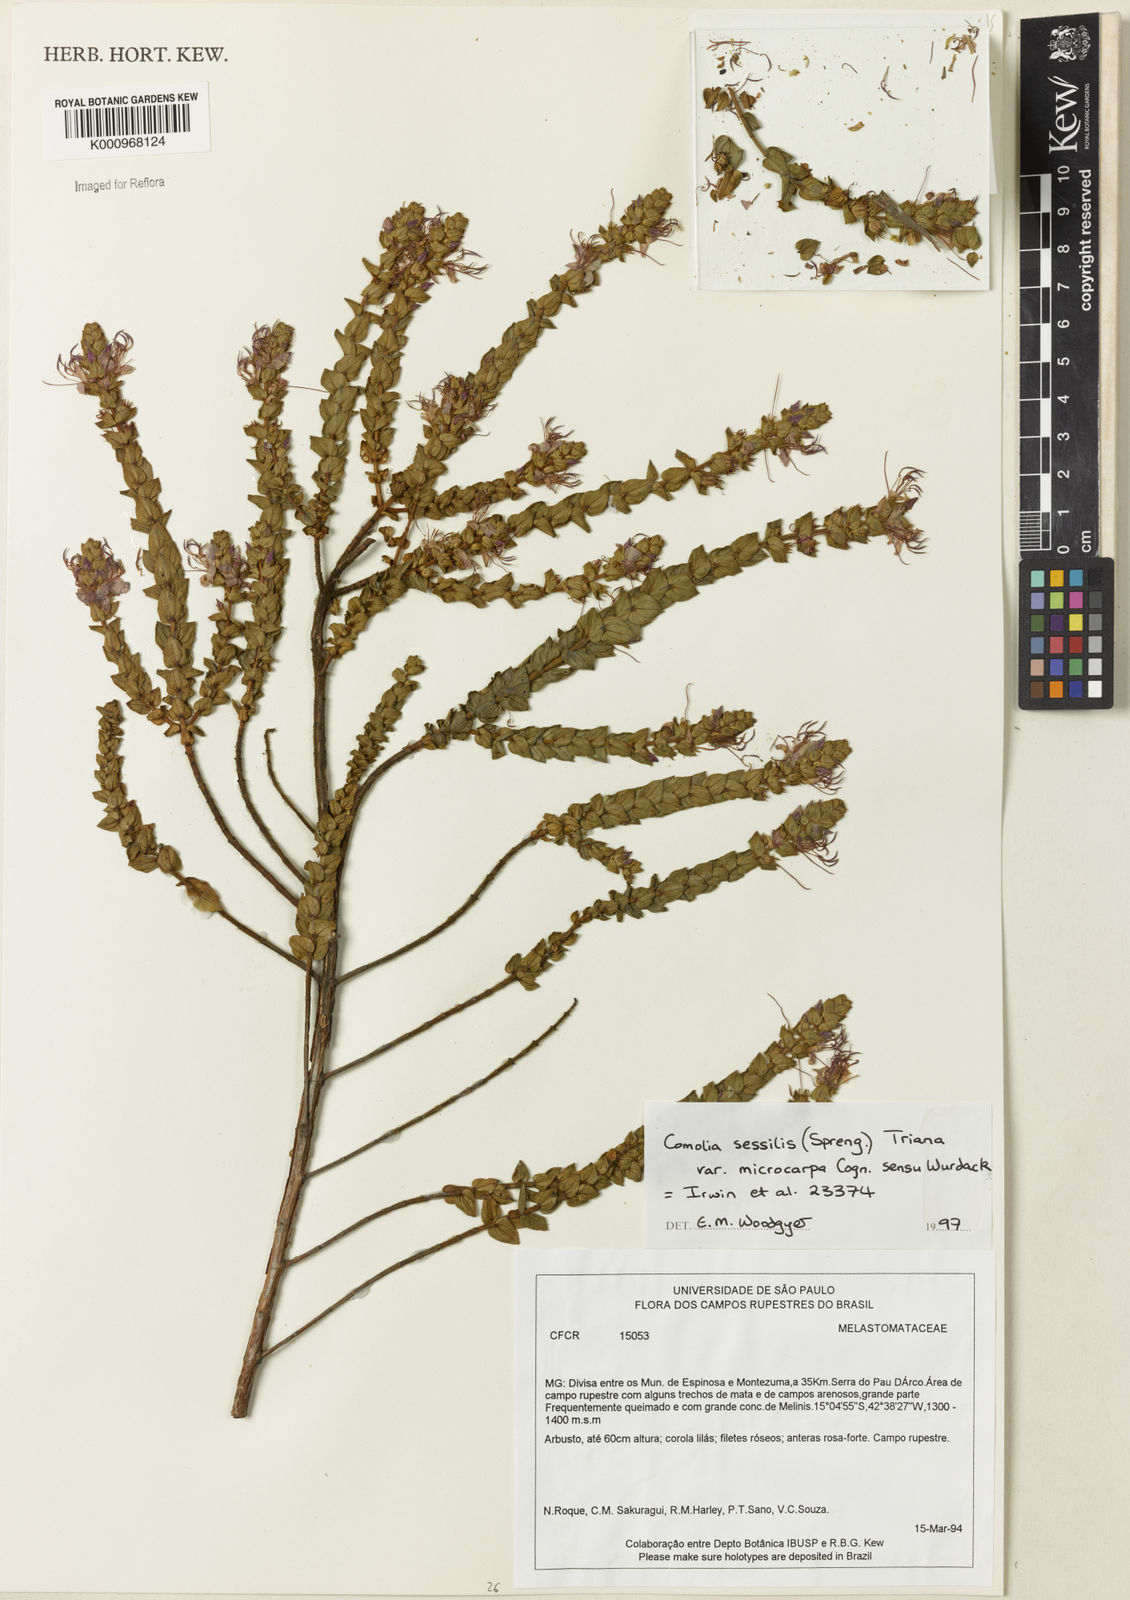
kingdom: Plantae
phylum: Tracheophyta
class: Magnoliopsida
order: Myrtales
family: Melastomataceae
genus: Fritzschia
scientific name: Fritzschia sessilis
